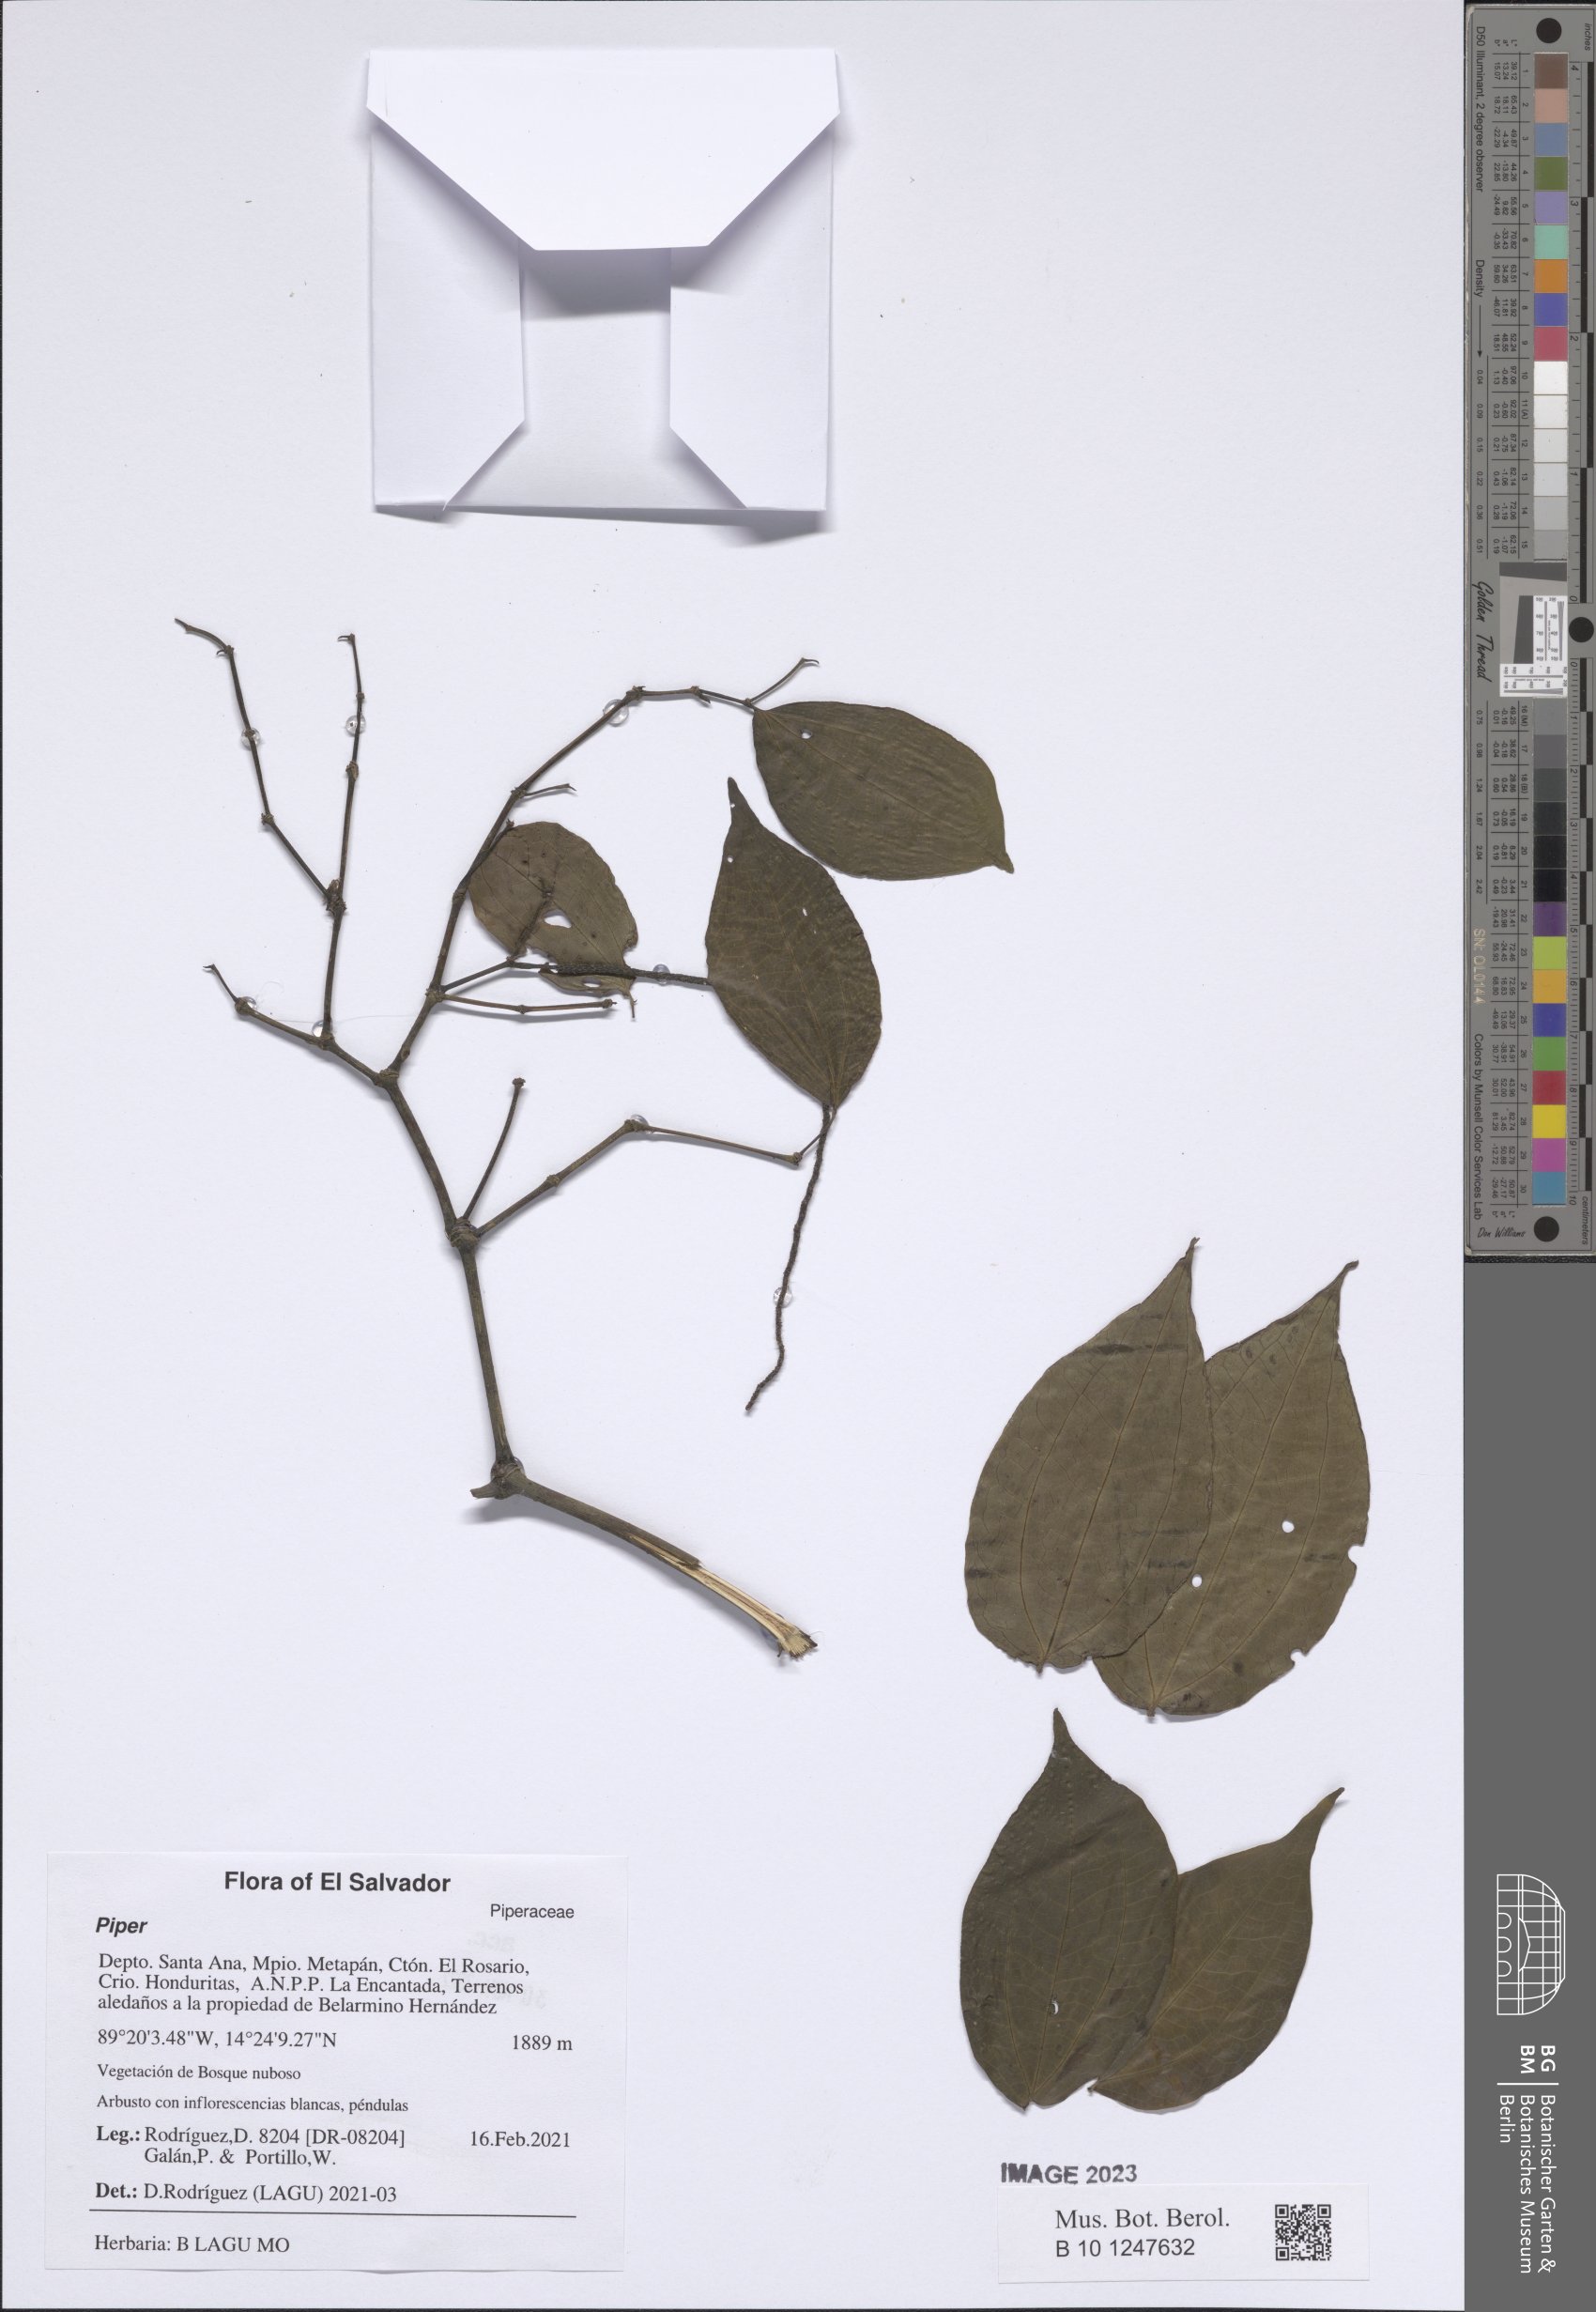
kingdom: Plantae
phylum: Tracheophyta
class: Magnoliopsida
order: Piperales
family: Piperaceae
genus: Piper
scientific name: Piper
